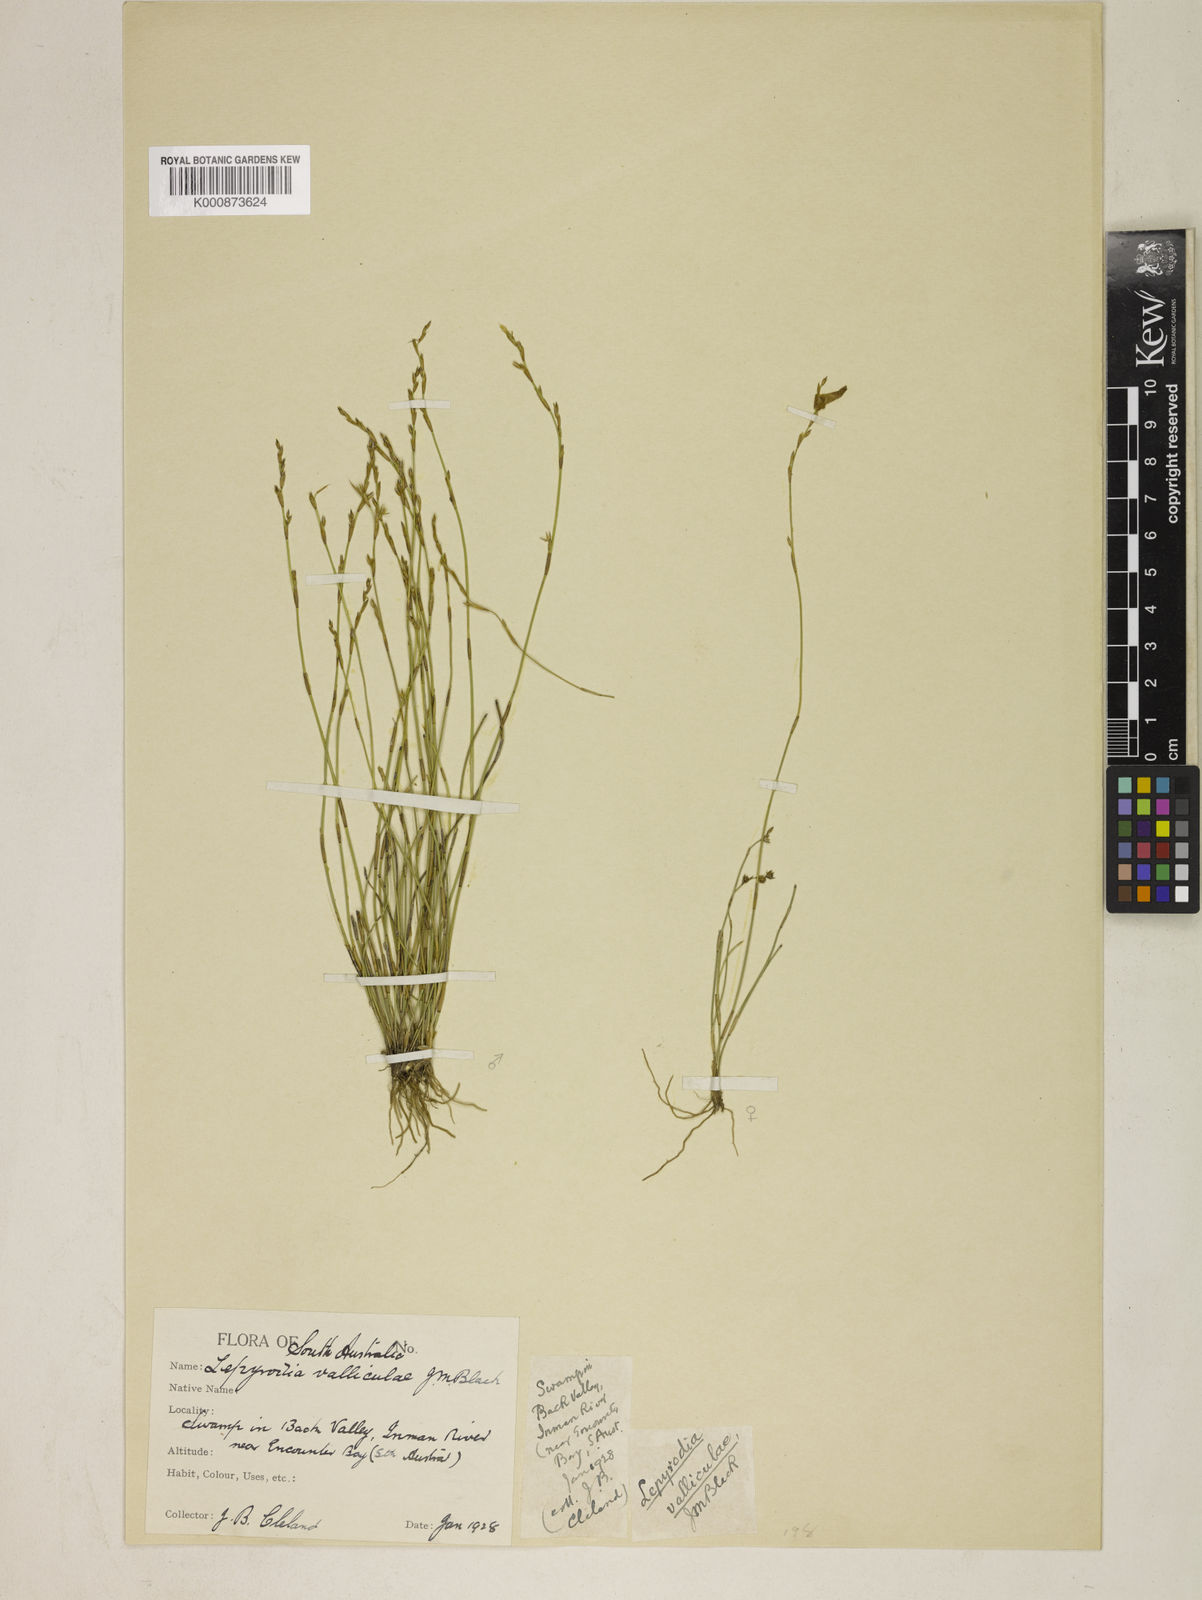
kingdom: Plantae
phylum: Tracheophyta
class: Liliopsida
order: Poales
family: Restionaceae
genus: Lepyrodia
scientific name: Lepyrodia valliculae
